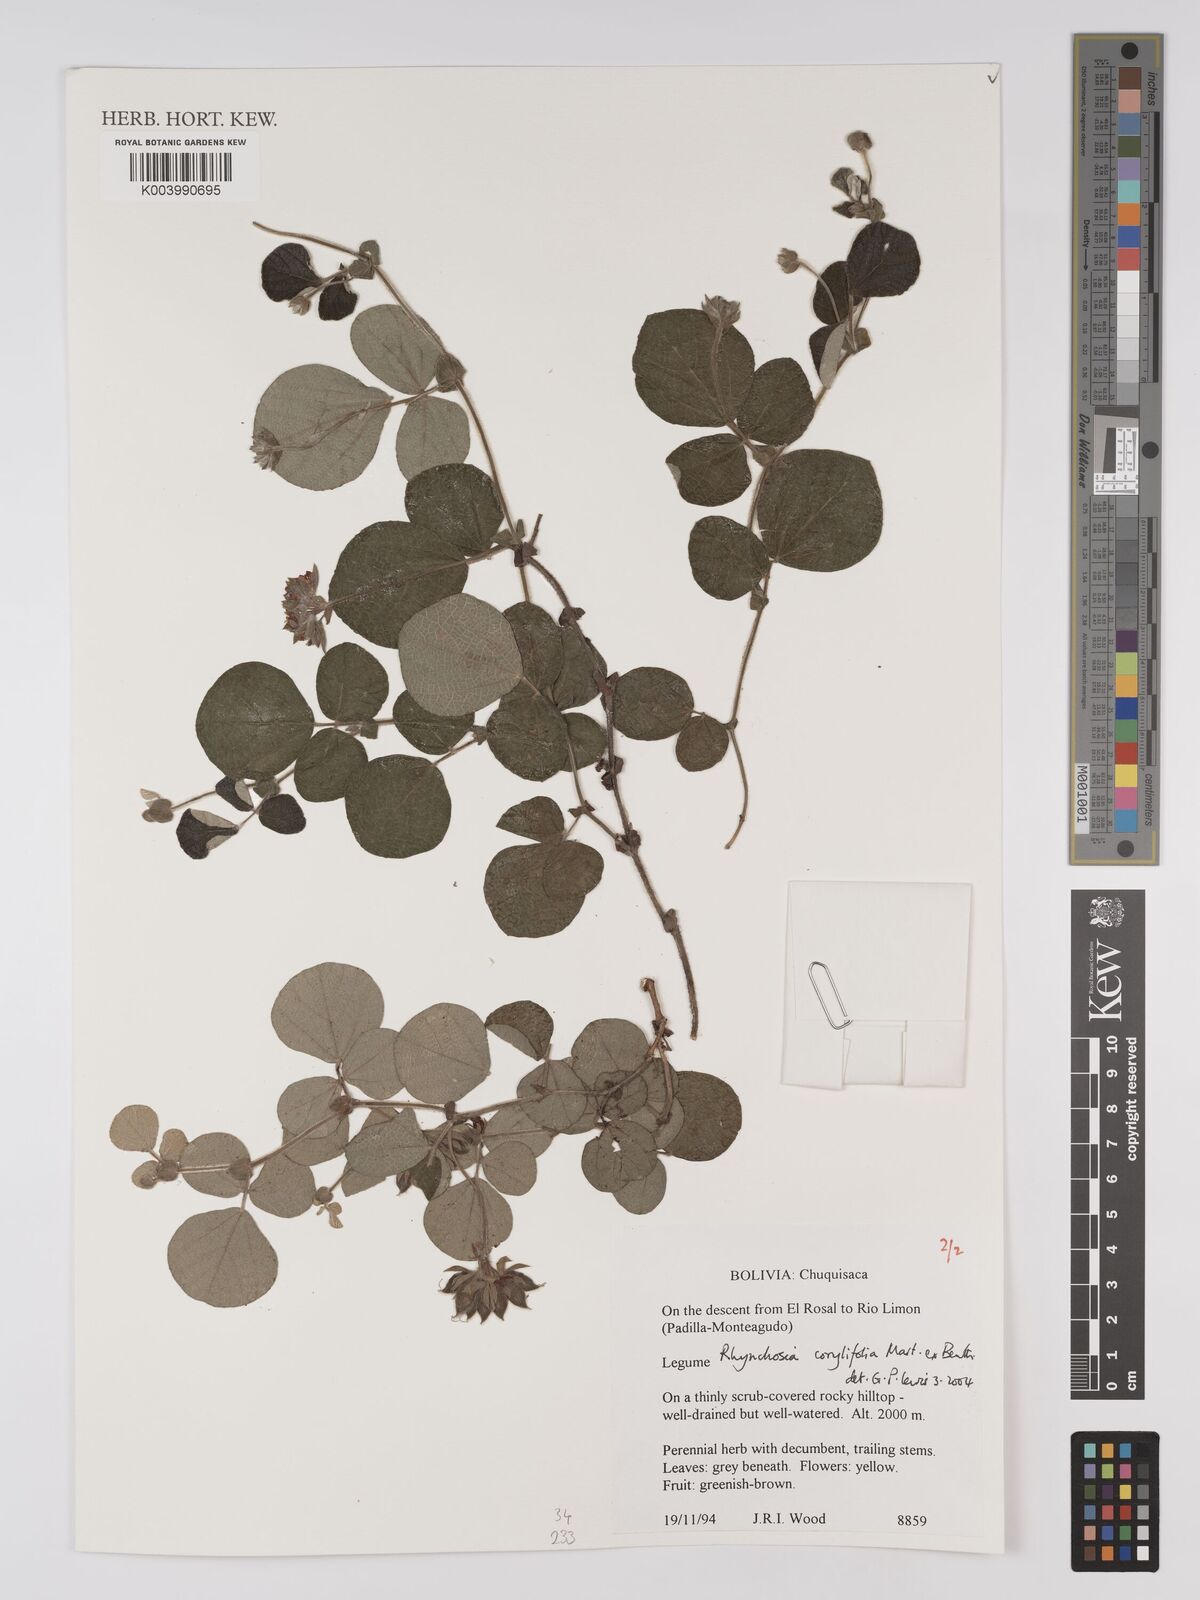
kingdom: Plantae
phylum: Tracheophyta
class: Magnoliopsida
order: Fabales
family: Fabaceae
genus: Rhynchosia
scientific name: Rhynchosia corylifolia
